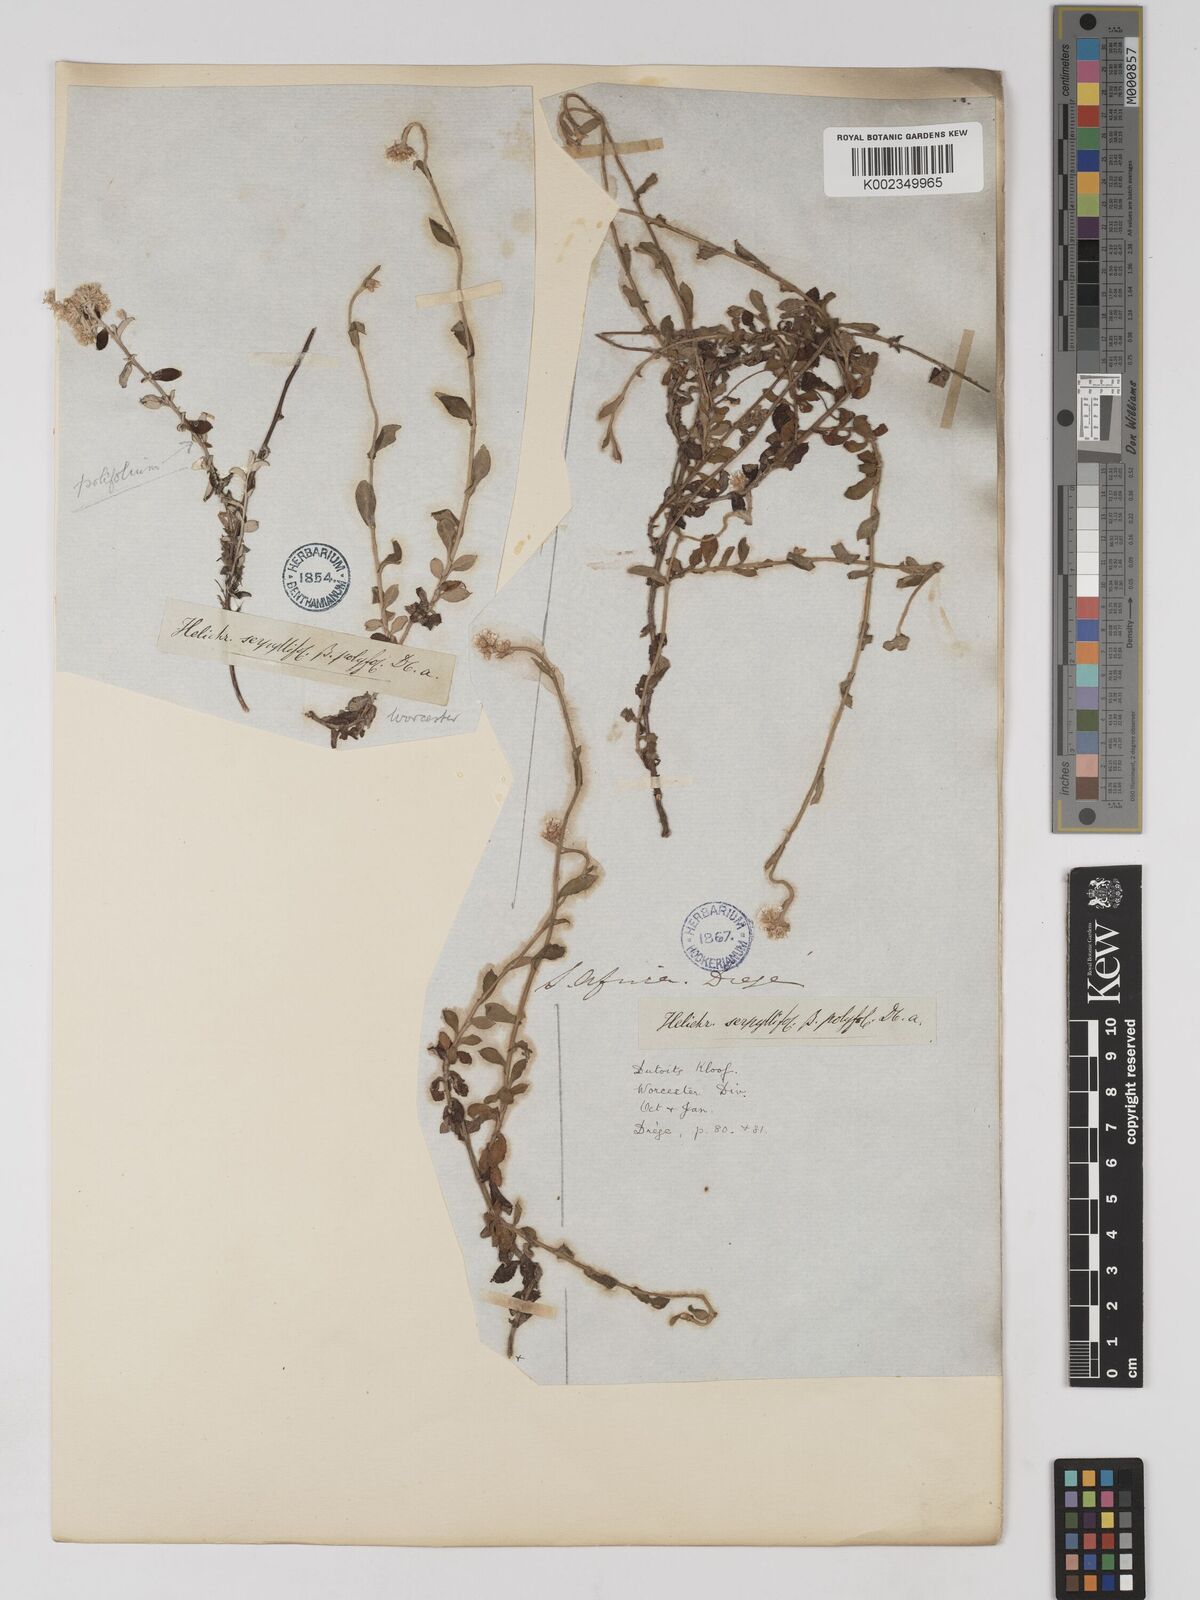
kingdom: Plantae
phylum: Tracheophyta
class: Magnoliopsida
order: Asterales
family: Asteraceae
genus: Helichrysum
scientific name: Helichrysum sphaeroideum
